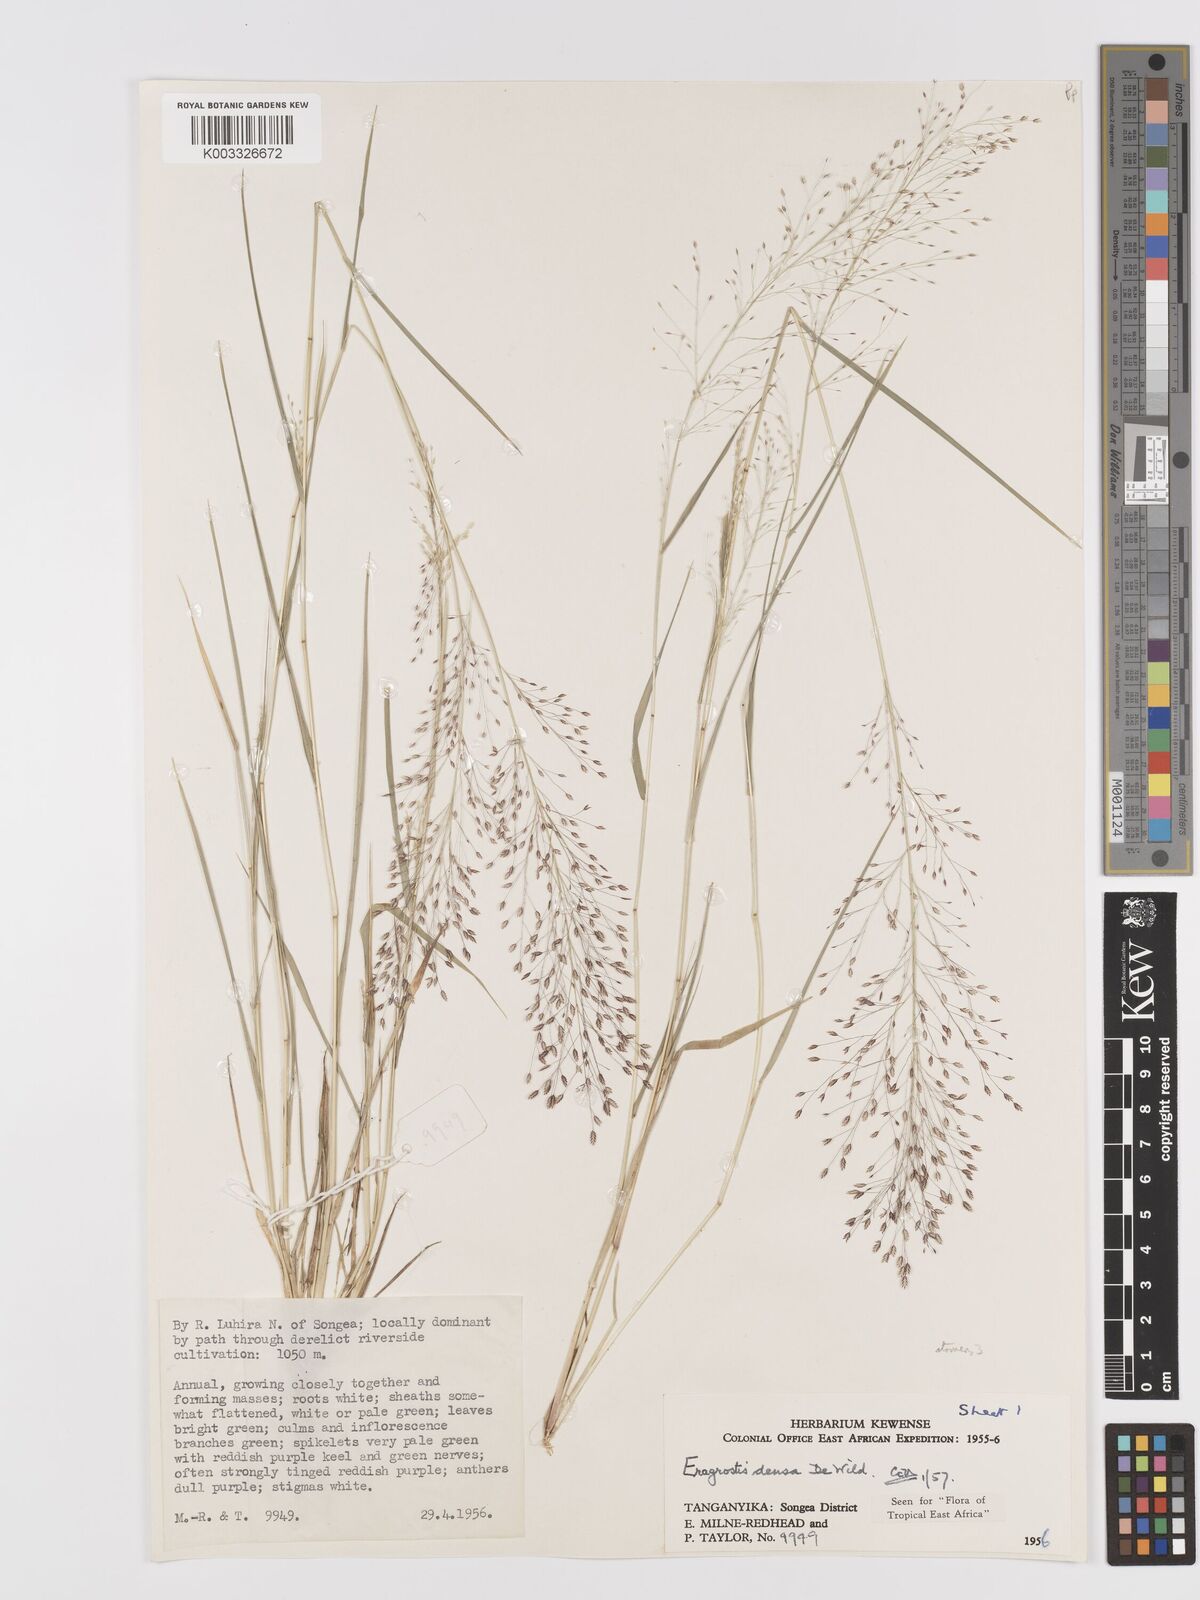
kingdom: Plantae
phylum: Tracheophyta
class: Liliopsida
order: Poales
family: Poaceae
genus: Eragrostis
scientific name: Eragrostis welwitschii
